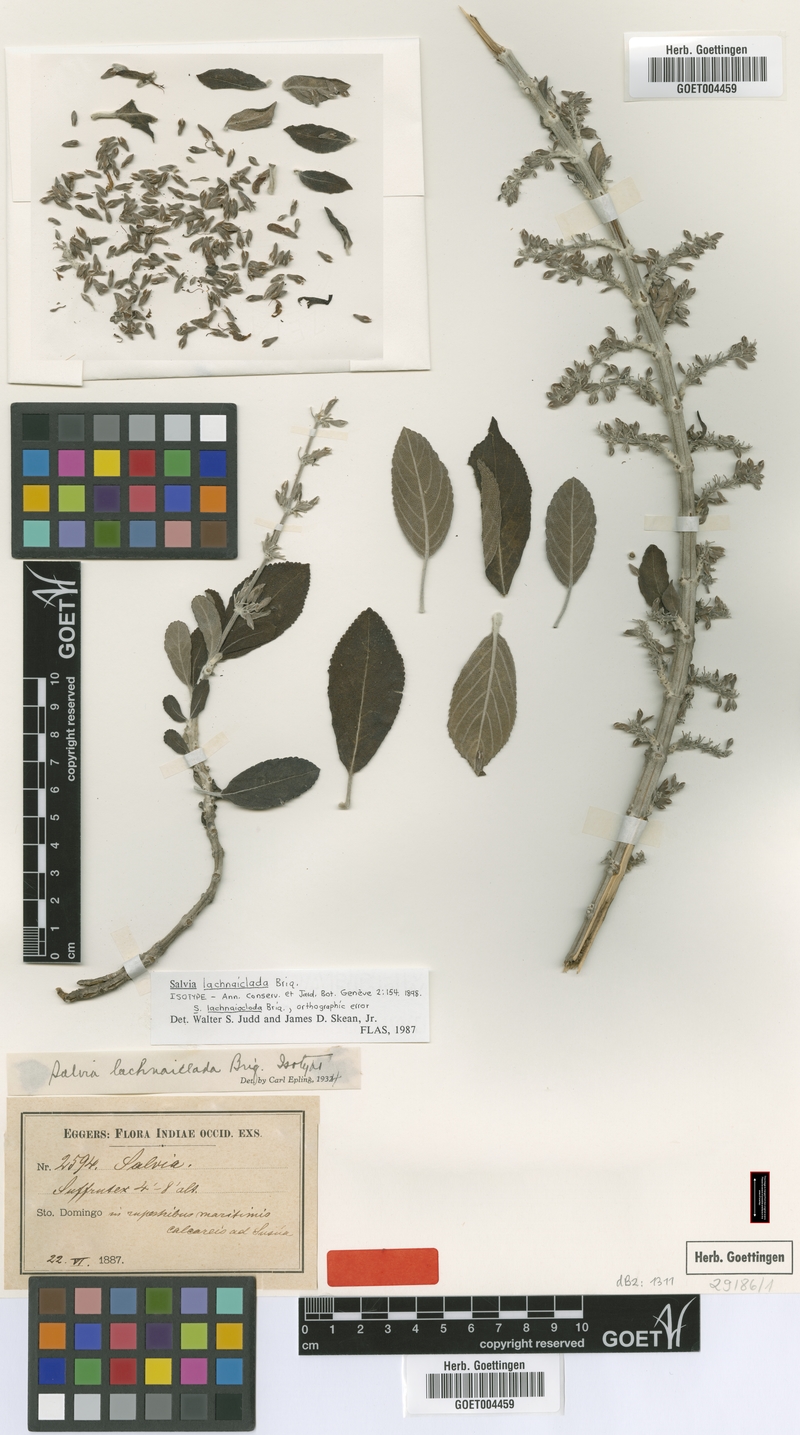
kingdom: Plantae
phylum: Tracheophyta
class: Magnoliopsida
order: Lamiales
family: Lamiaceae
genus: Salvia
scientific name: Salvia lachnaioclada
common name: Sosúa sage
